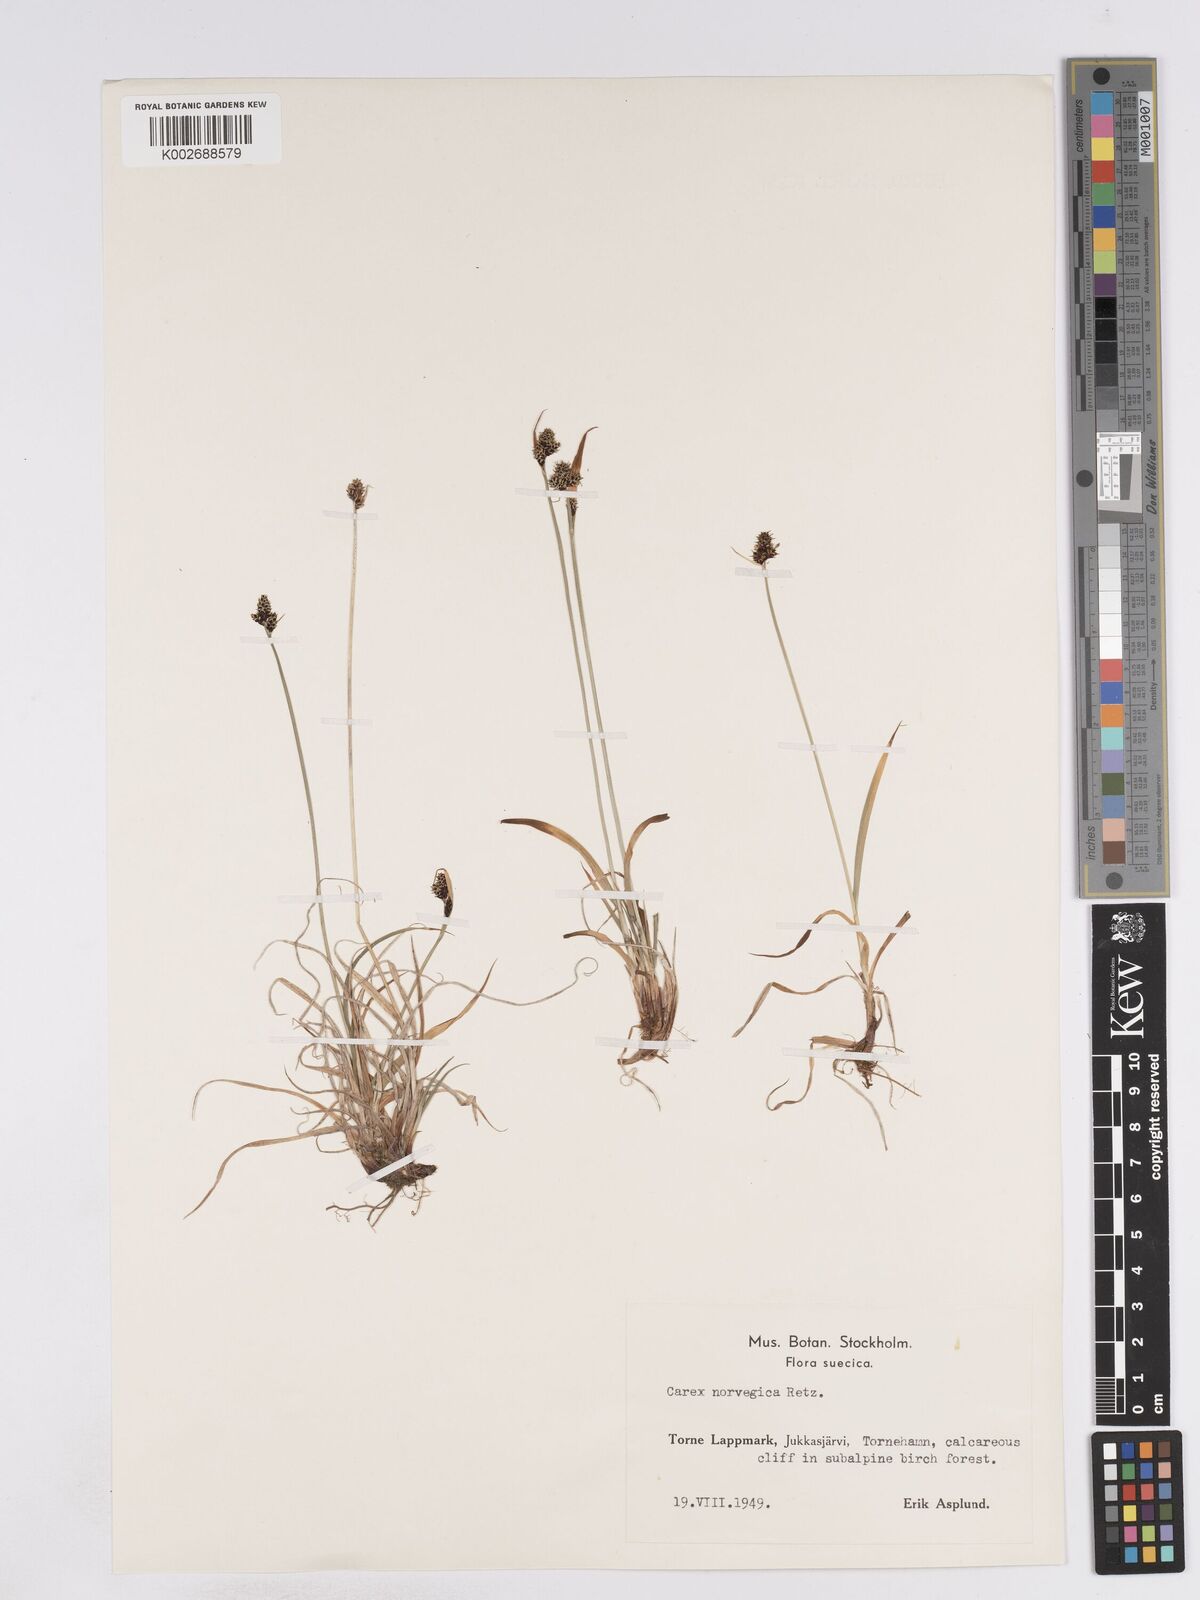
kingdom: Plantae
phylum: Tracheophyta
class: Liliopsida
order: Poales
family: Cyperaceae
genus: Carex
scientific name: Carex norvegica
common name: Close-headed alpine-sedge
